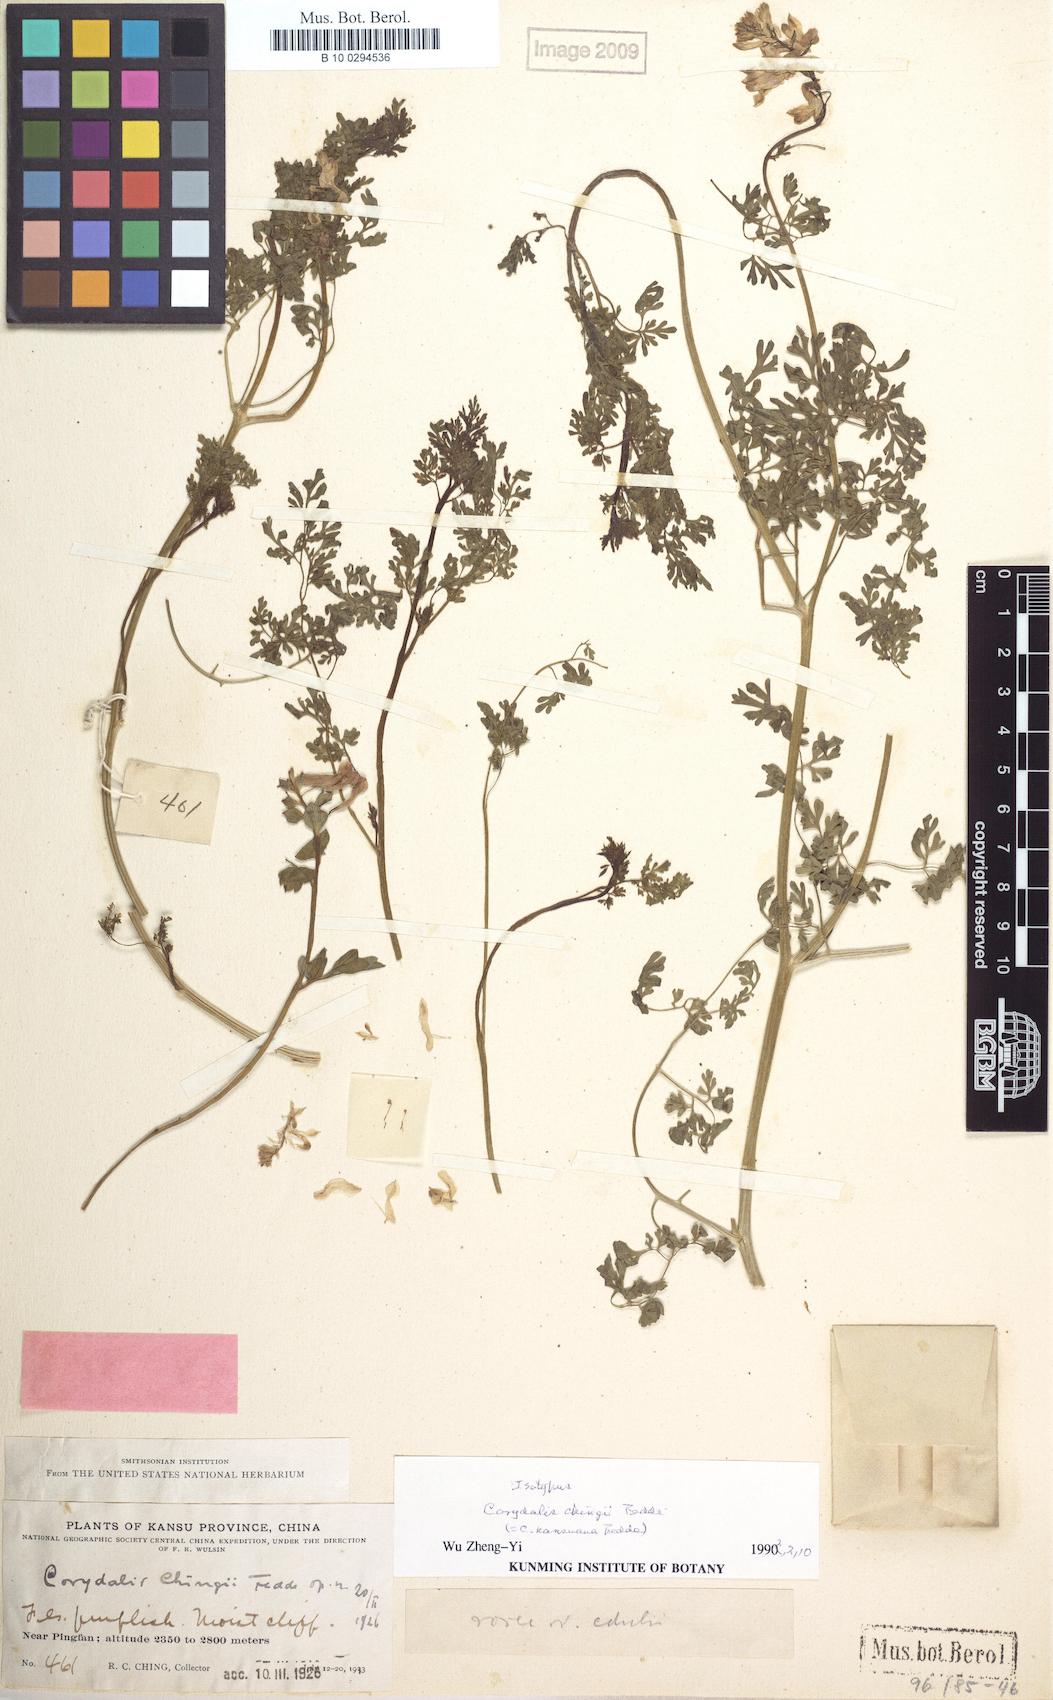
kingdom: Plantae
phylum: Tracheophyta
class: Magnoliopsida
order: Ranunculales
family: Papaveraceae
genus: Corydalis
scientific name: Corydalis chingii
